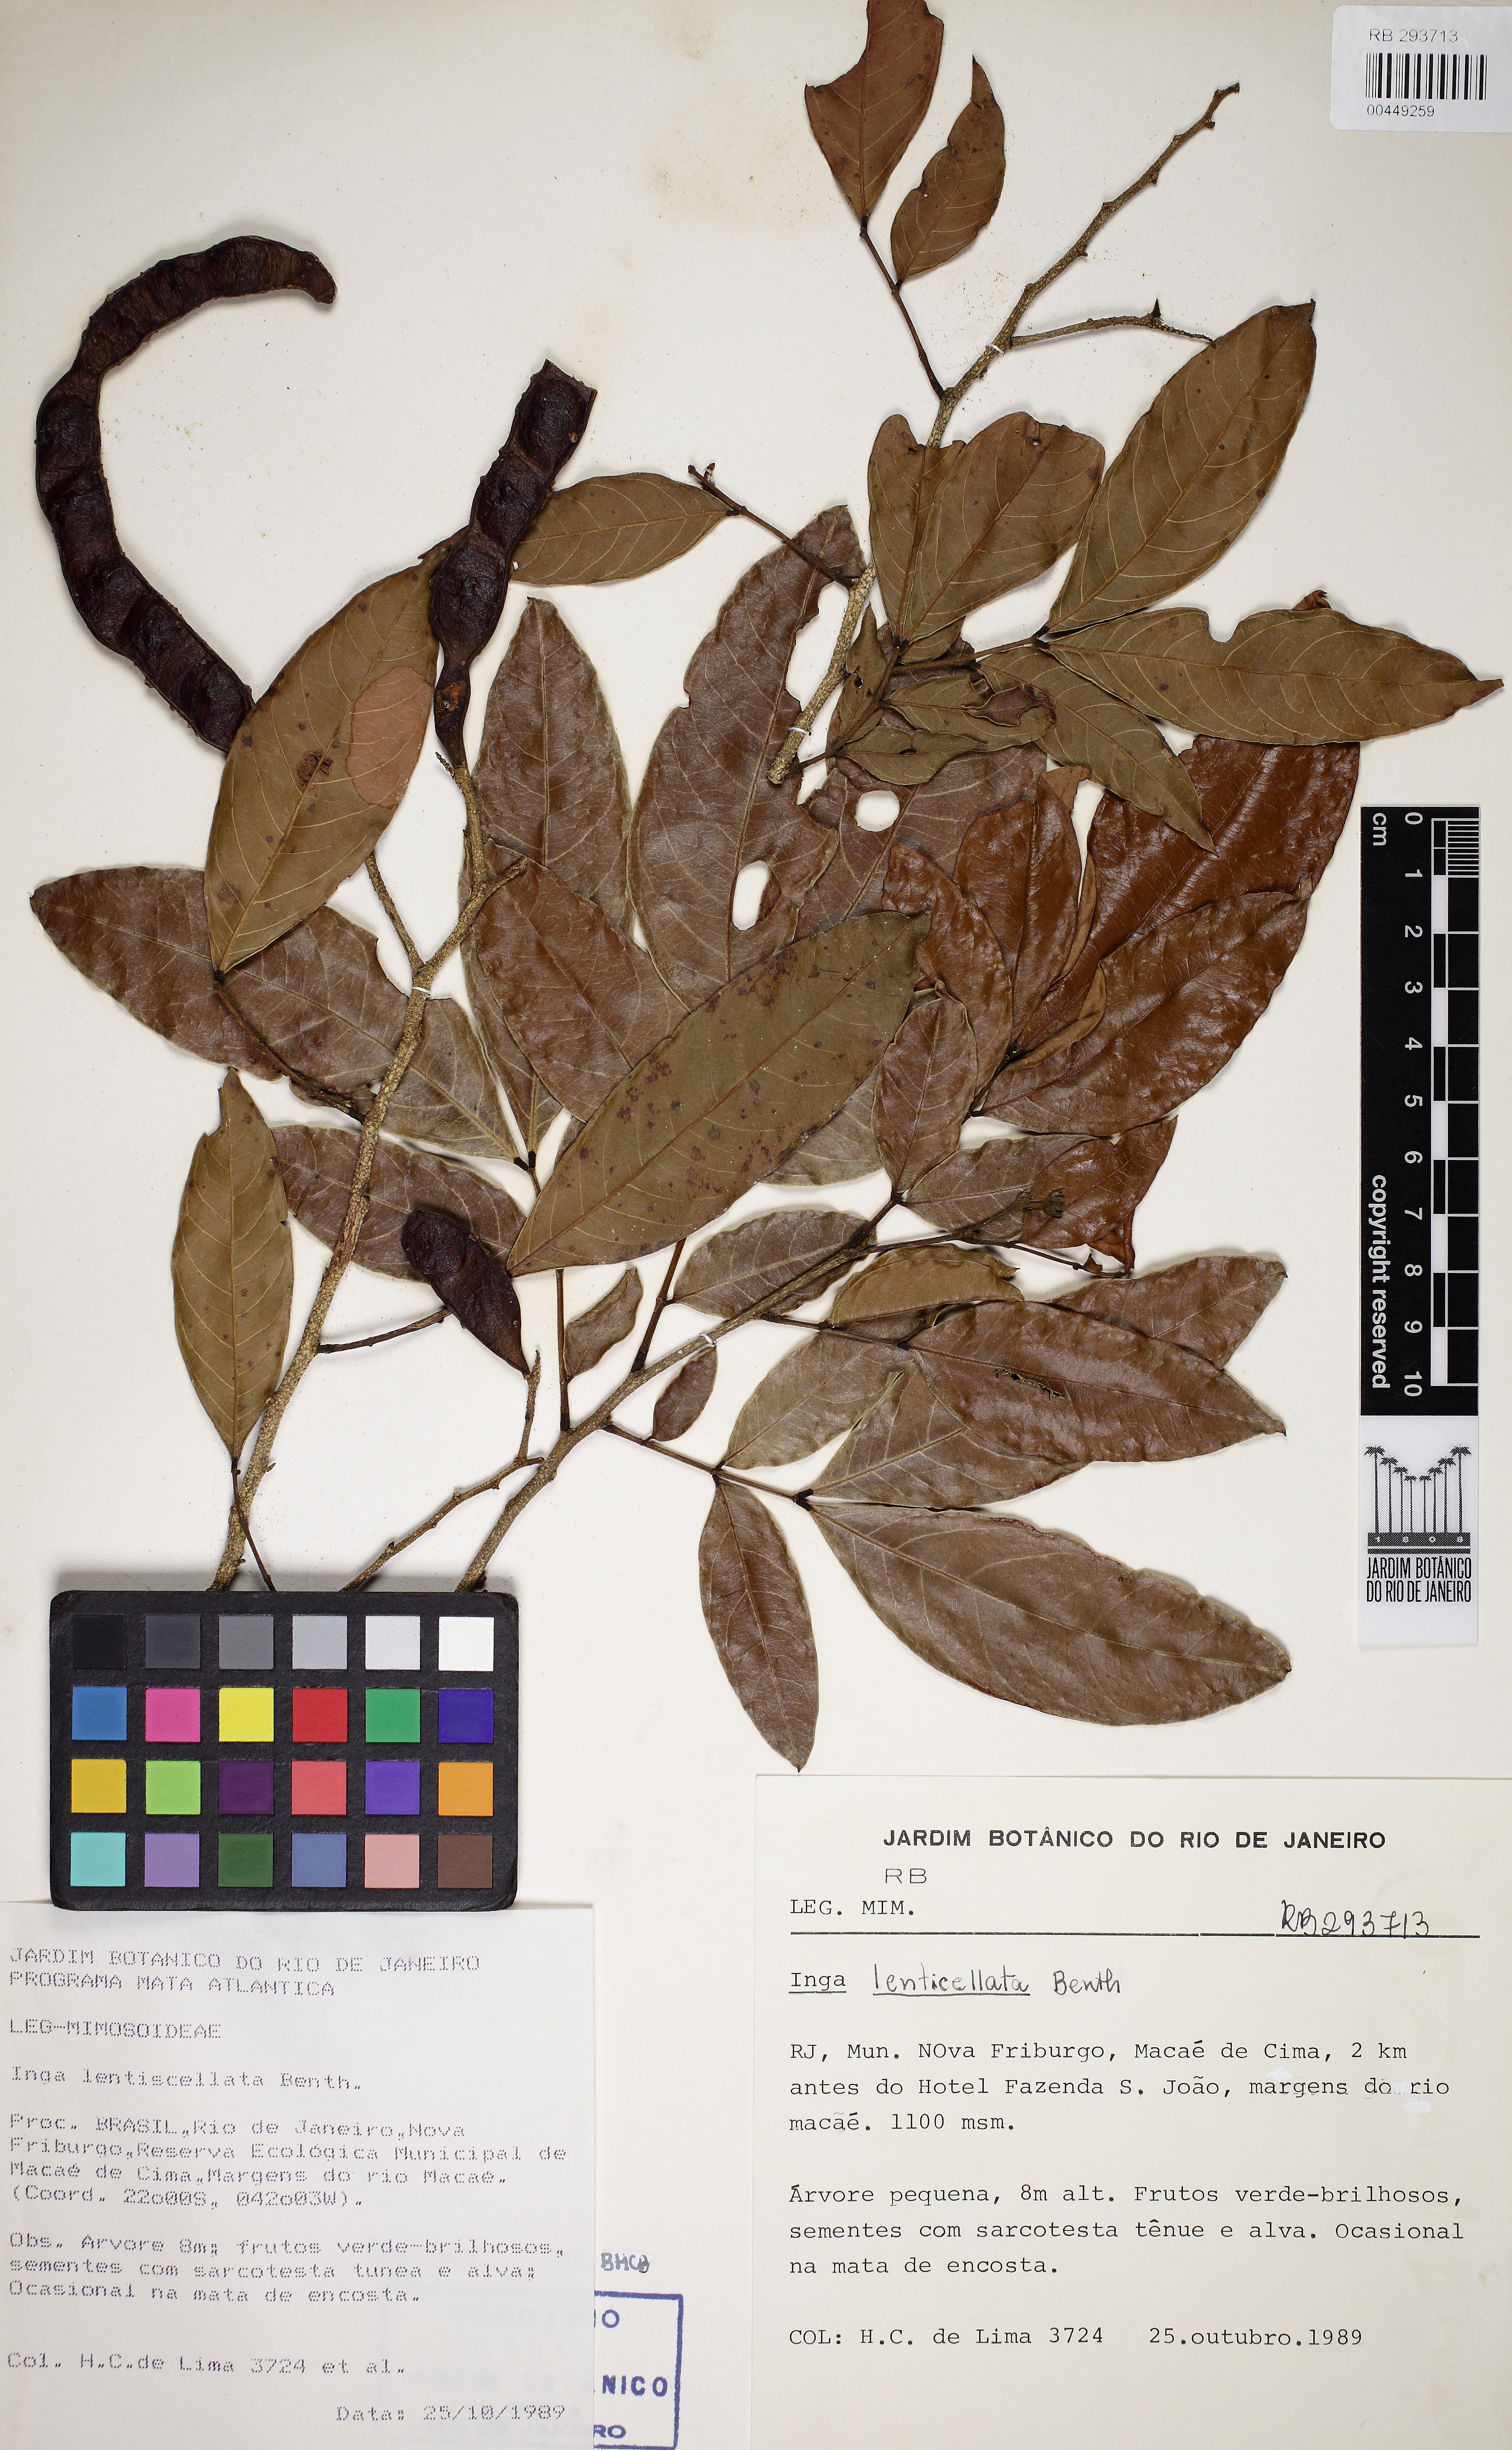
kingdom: Plantae
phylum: Tracheophyta
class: Magnoliopsida
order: Fabales
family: Fabaceae
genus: Inga
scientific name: Inga lenticellata
